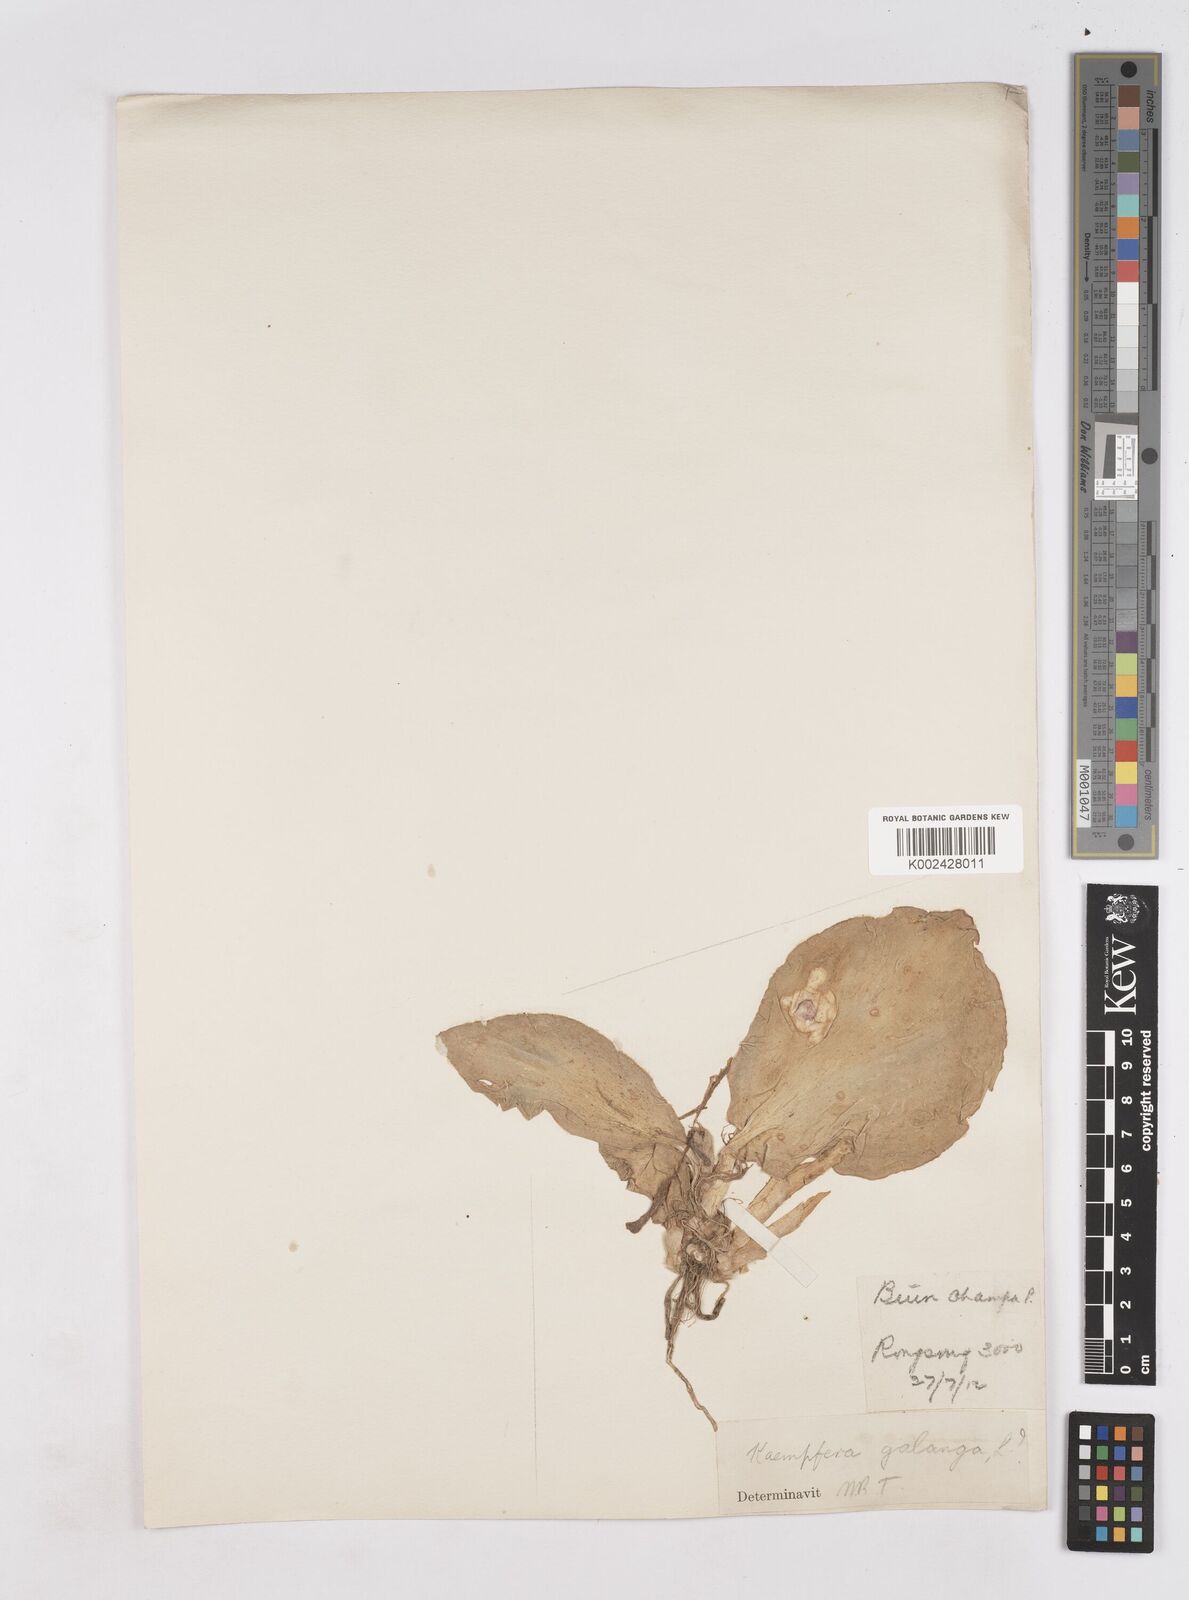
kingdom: Plantae
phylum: Tracheophyta
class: Liliopsida
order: Zingiberales
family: Zingiberaceae
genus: Kaempferia
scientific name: Kaempferia galanga
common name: Aromatic ginger
